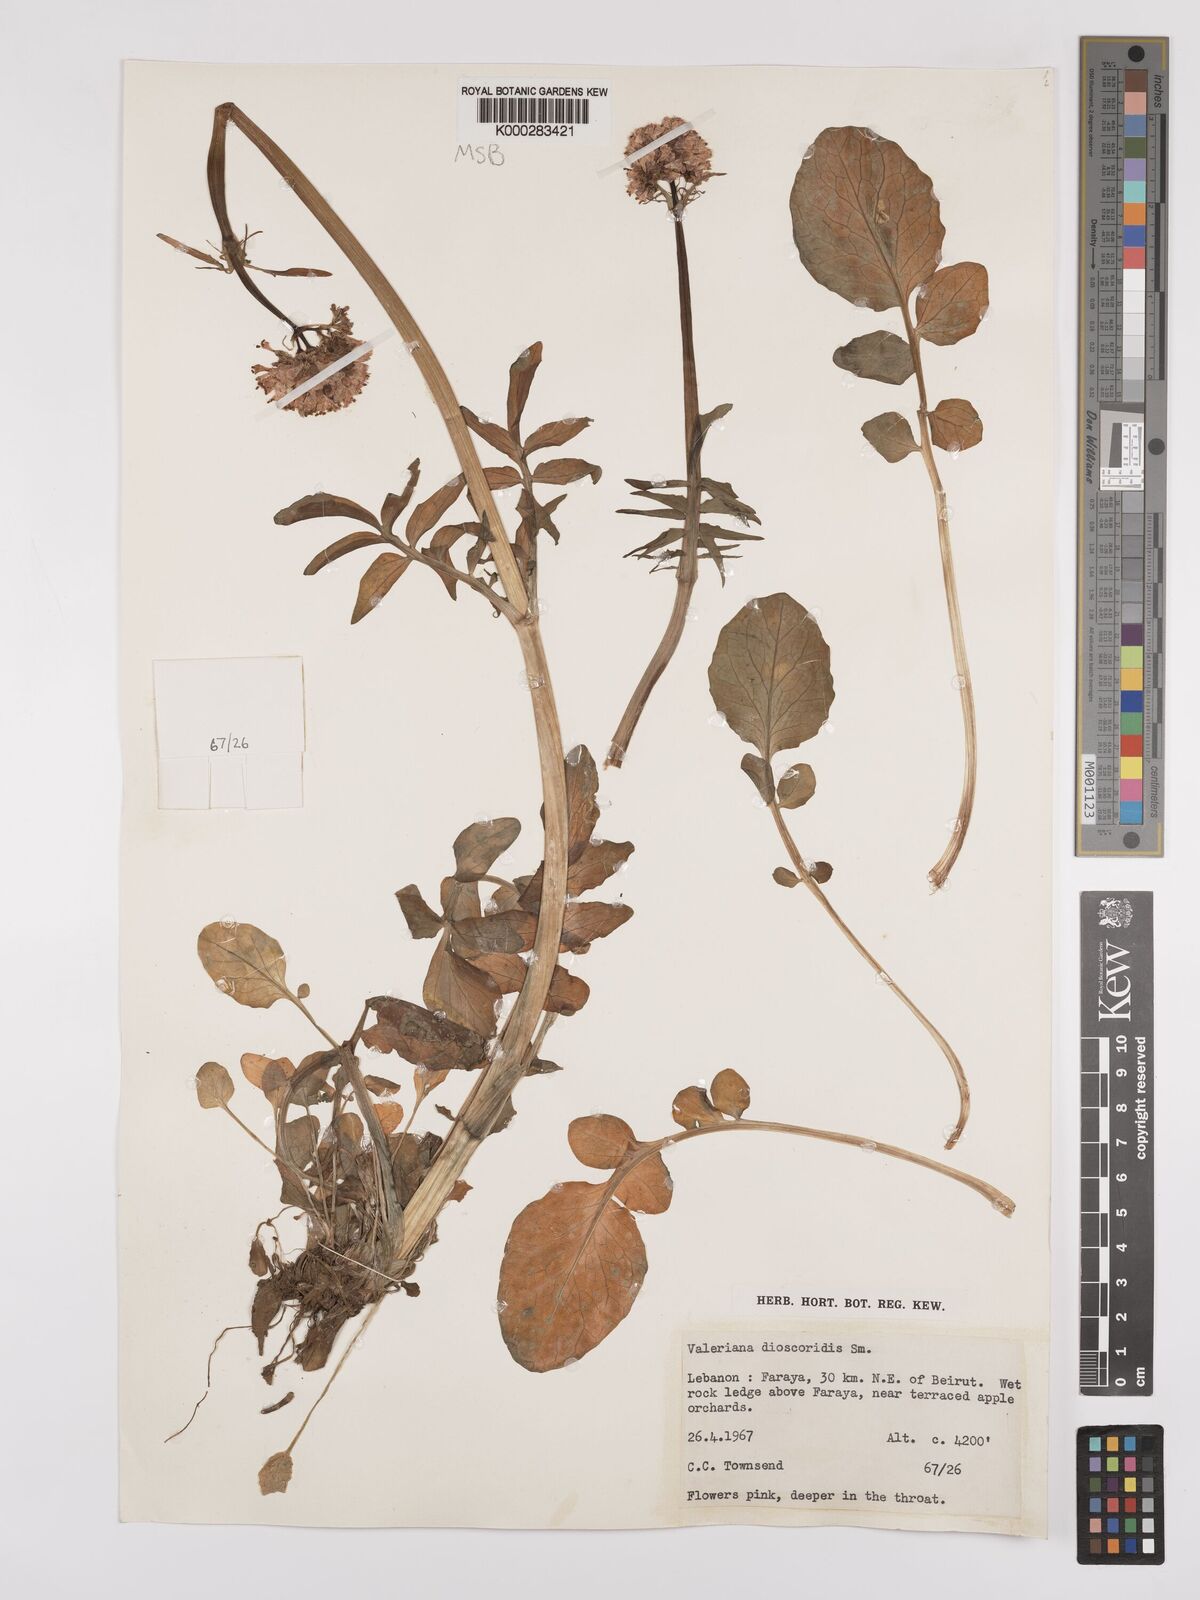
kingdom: Plantae
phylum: Tracheophyta
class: Magnoliopsida
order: Dipsacales
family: Caprifoliaceae
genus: Valeriana
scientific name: Valeriana dioscoridis
